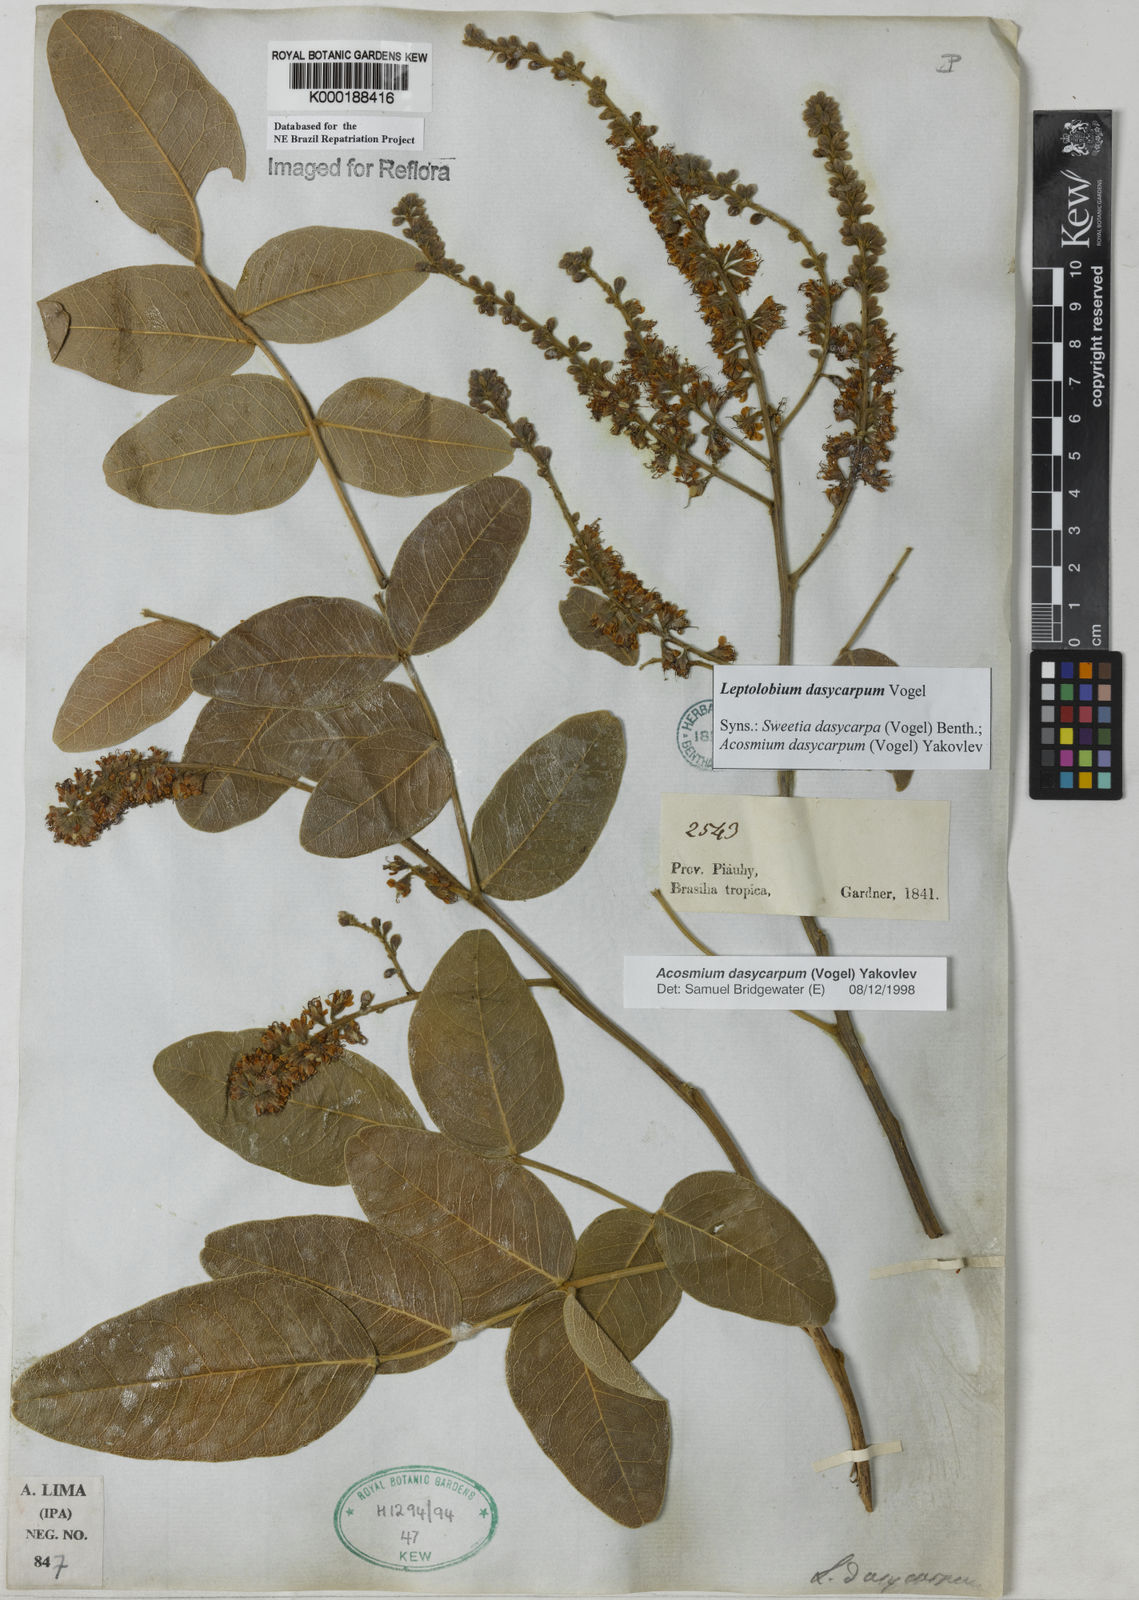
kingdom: Plantae
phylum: Tracheophyta
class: Magnoliopsida
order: Fabales
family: Fabaceae
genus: Leptolobium
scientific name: Leptolobium dasycarpum
